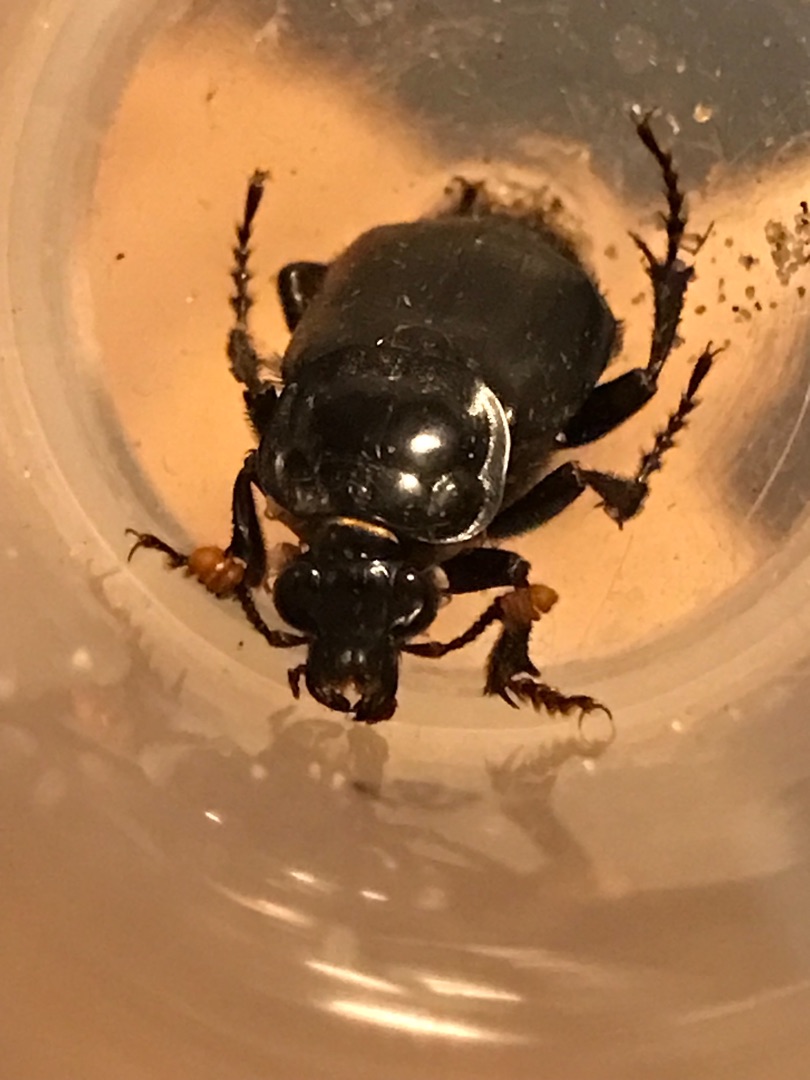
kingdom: Animalia
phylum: Arthropoda
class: Insecta
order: Coleoptera
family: Staphylinidae
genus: Nicrophorus
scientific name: Nicrophorus humator
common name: Sort ådselgraver
